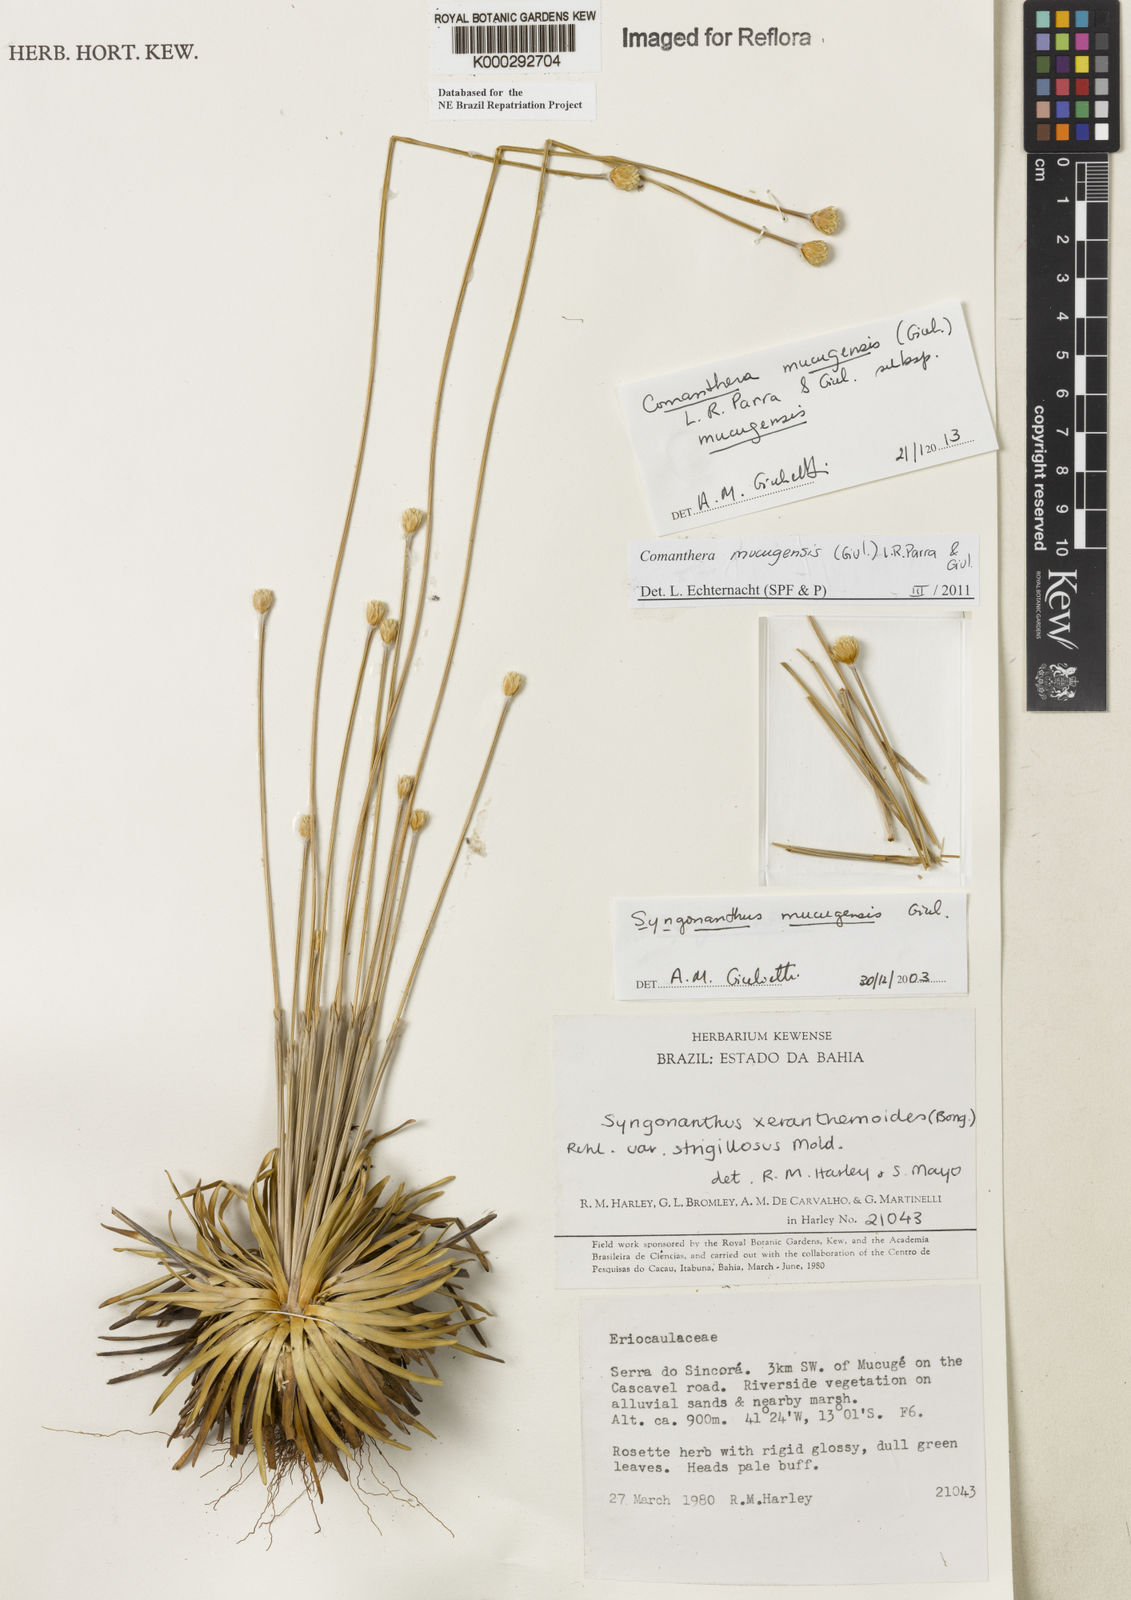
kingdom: Plantae
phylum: Tracheophyta
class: Liliopsida
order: Poales
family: Eriocaulaceae
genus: Comanthera
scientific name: Comanthera mucugensis
